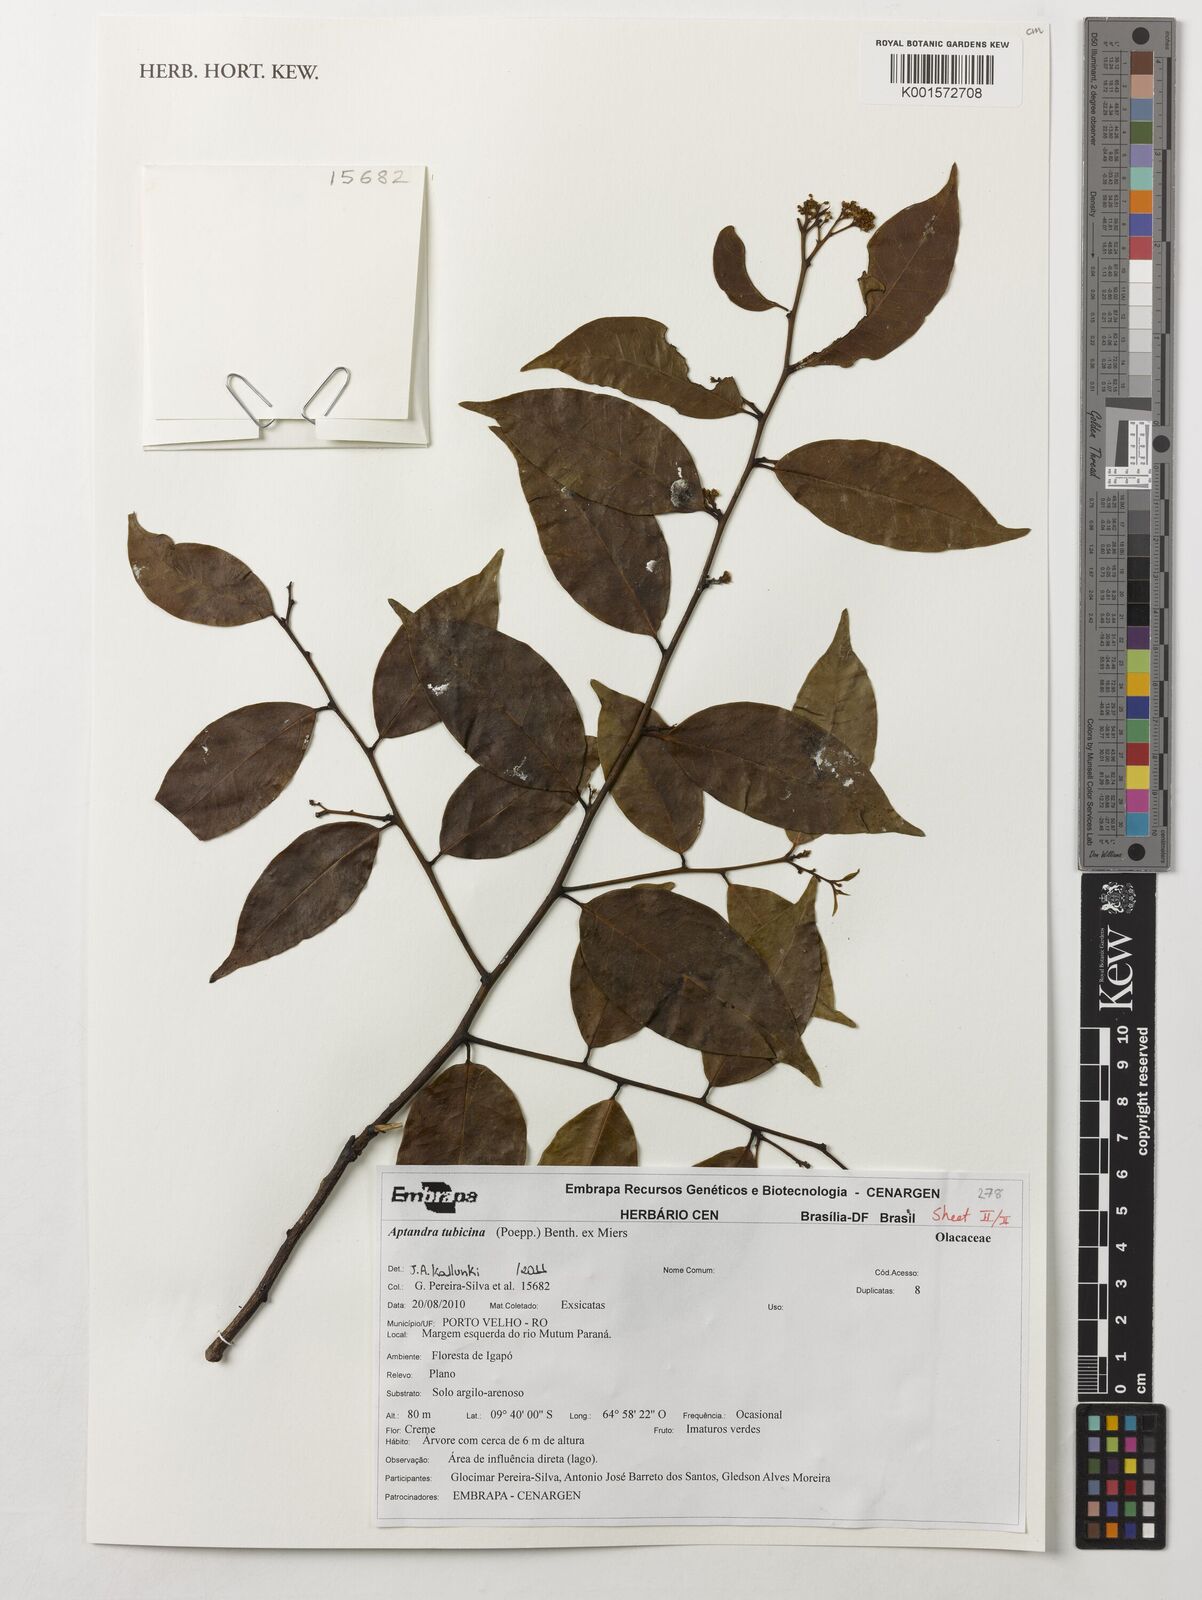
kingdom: Plantae
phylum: Tracheophyta
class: Magnoliopsida
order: Santalales
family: Aptandraceae
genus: Aptandra
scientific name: Aptandra tubicina
